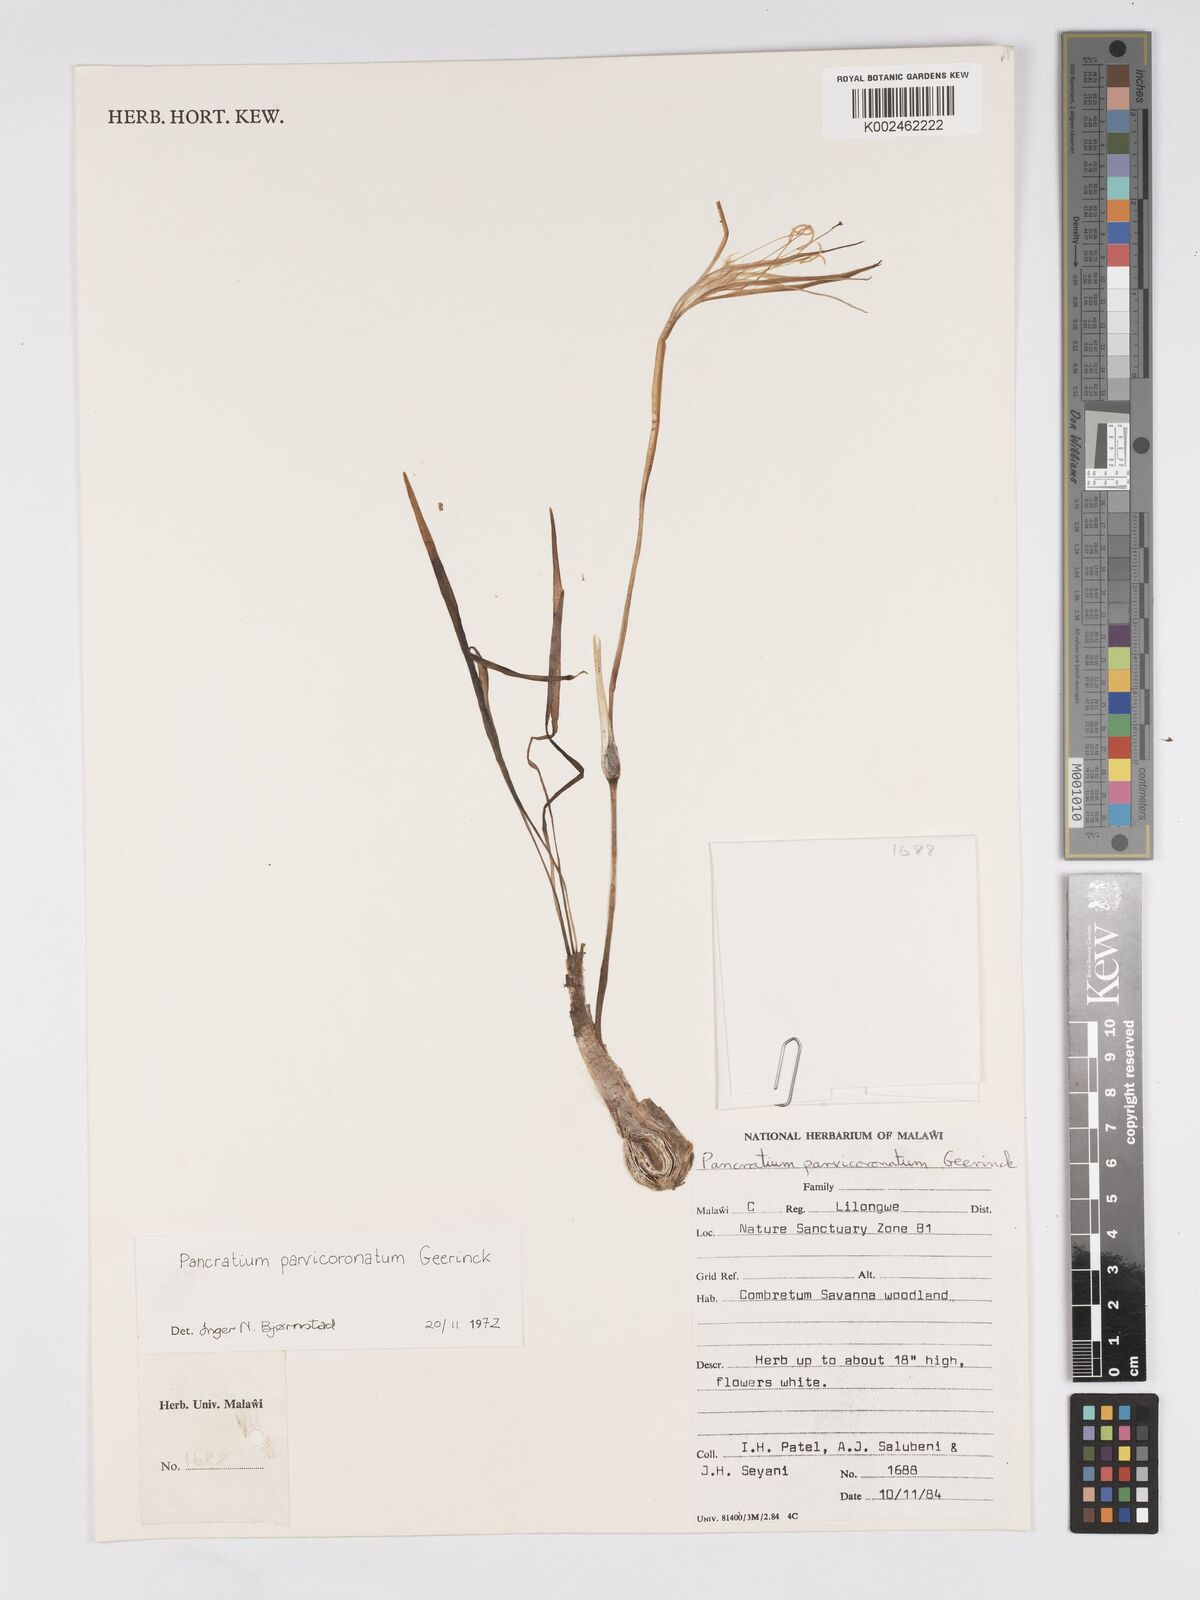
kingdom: Plantae
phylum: Tracheophyta
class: Liliopsida
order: Asparagales
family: Amaryllidaceae
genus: Pancratium
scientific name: Pancratium parvicoronatum
